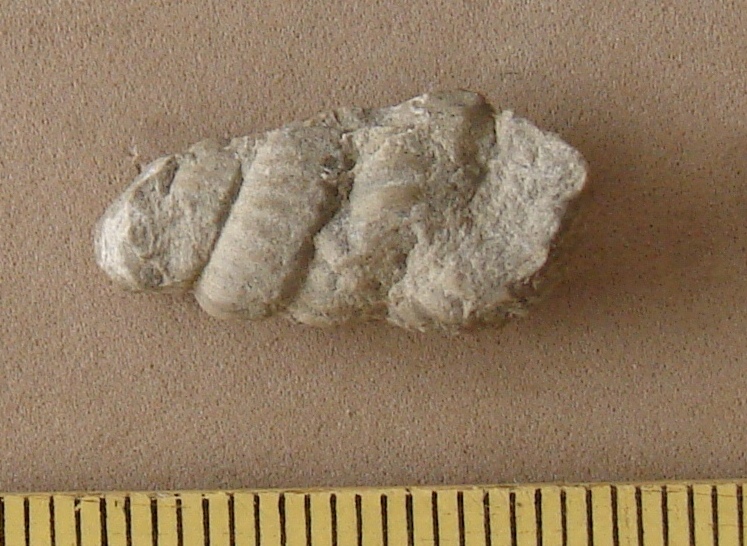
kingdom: Animalia
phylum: Mollusca
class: Cephalopoda
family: Turrilitidae
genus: Turrilites
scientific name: Turrilites costatus
